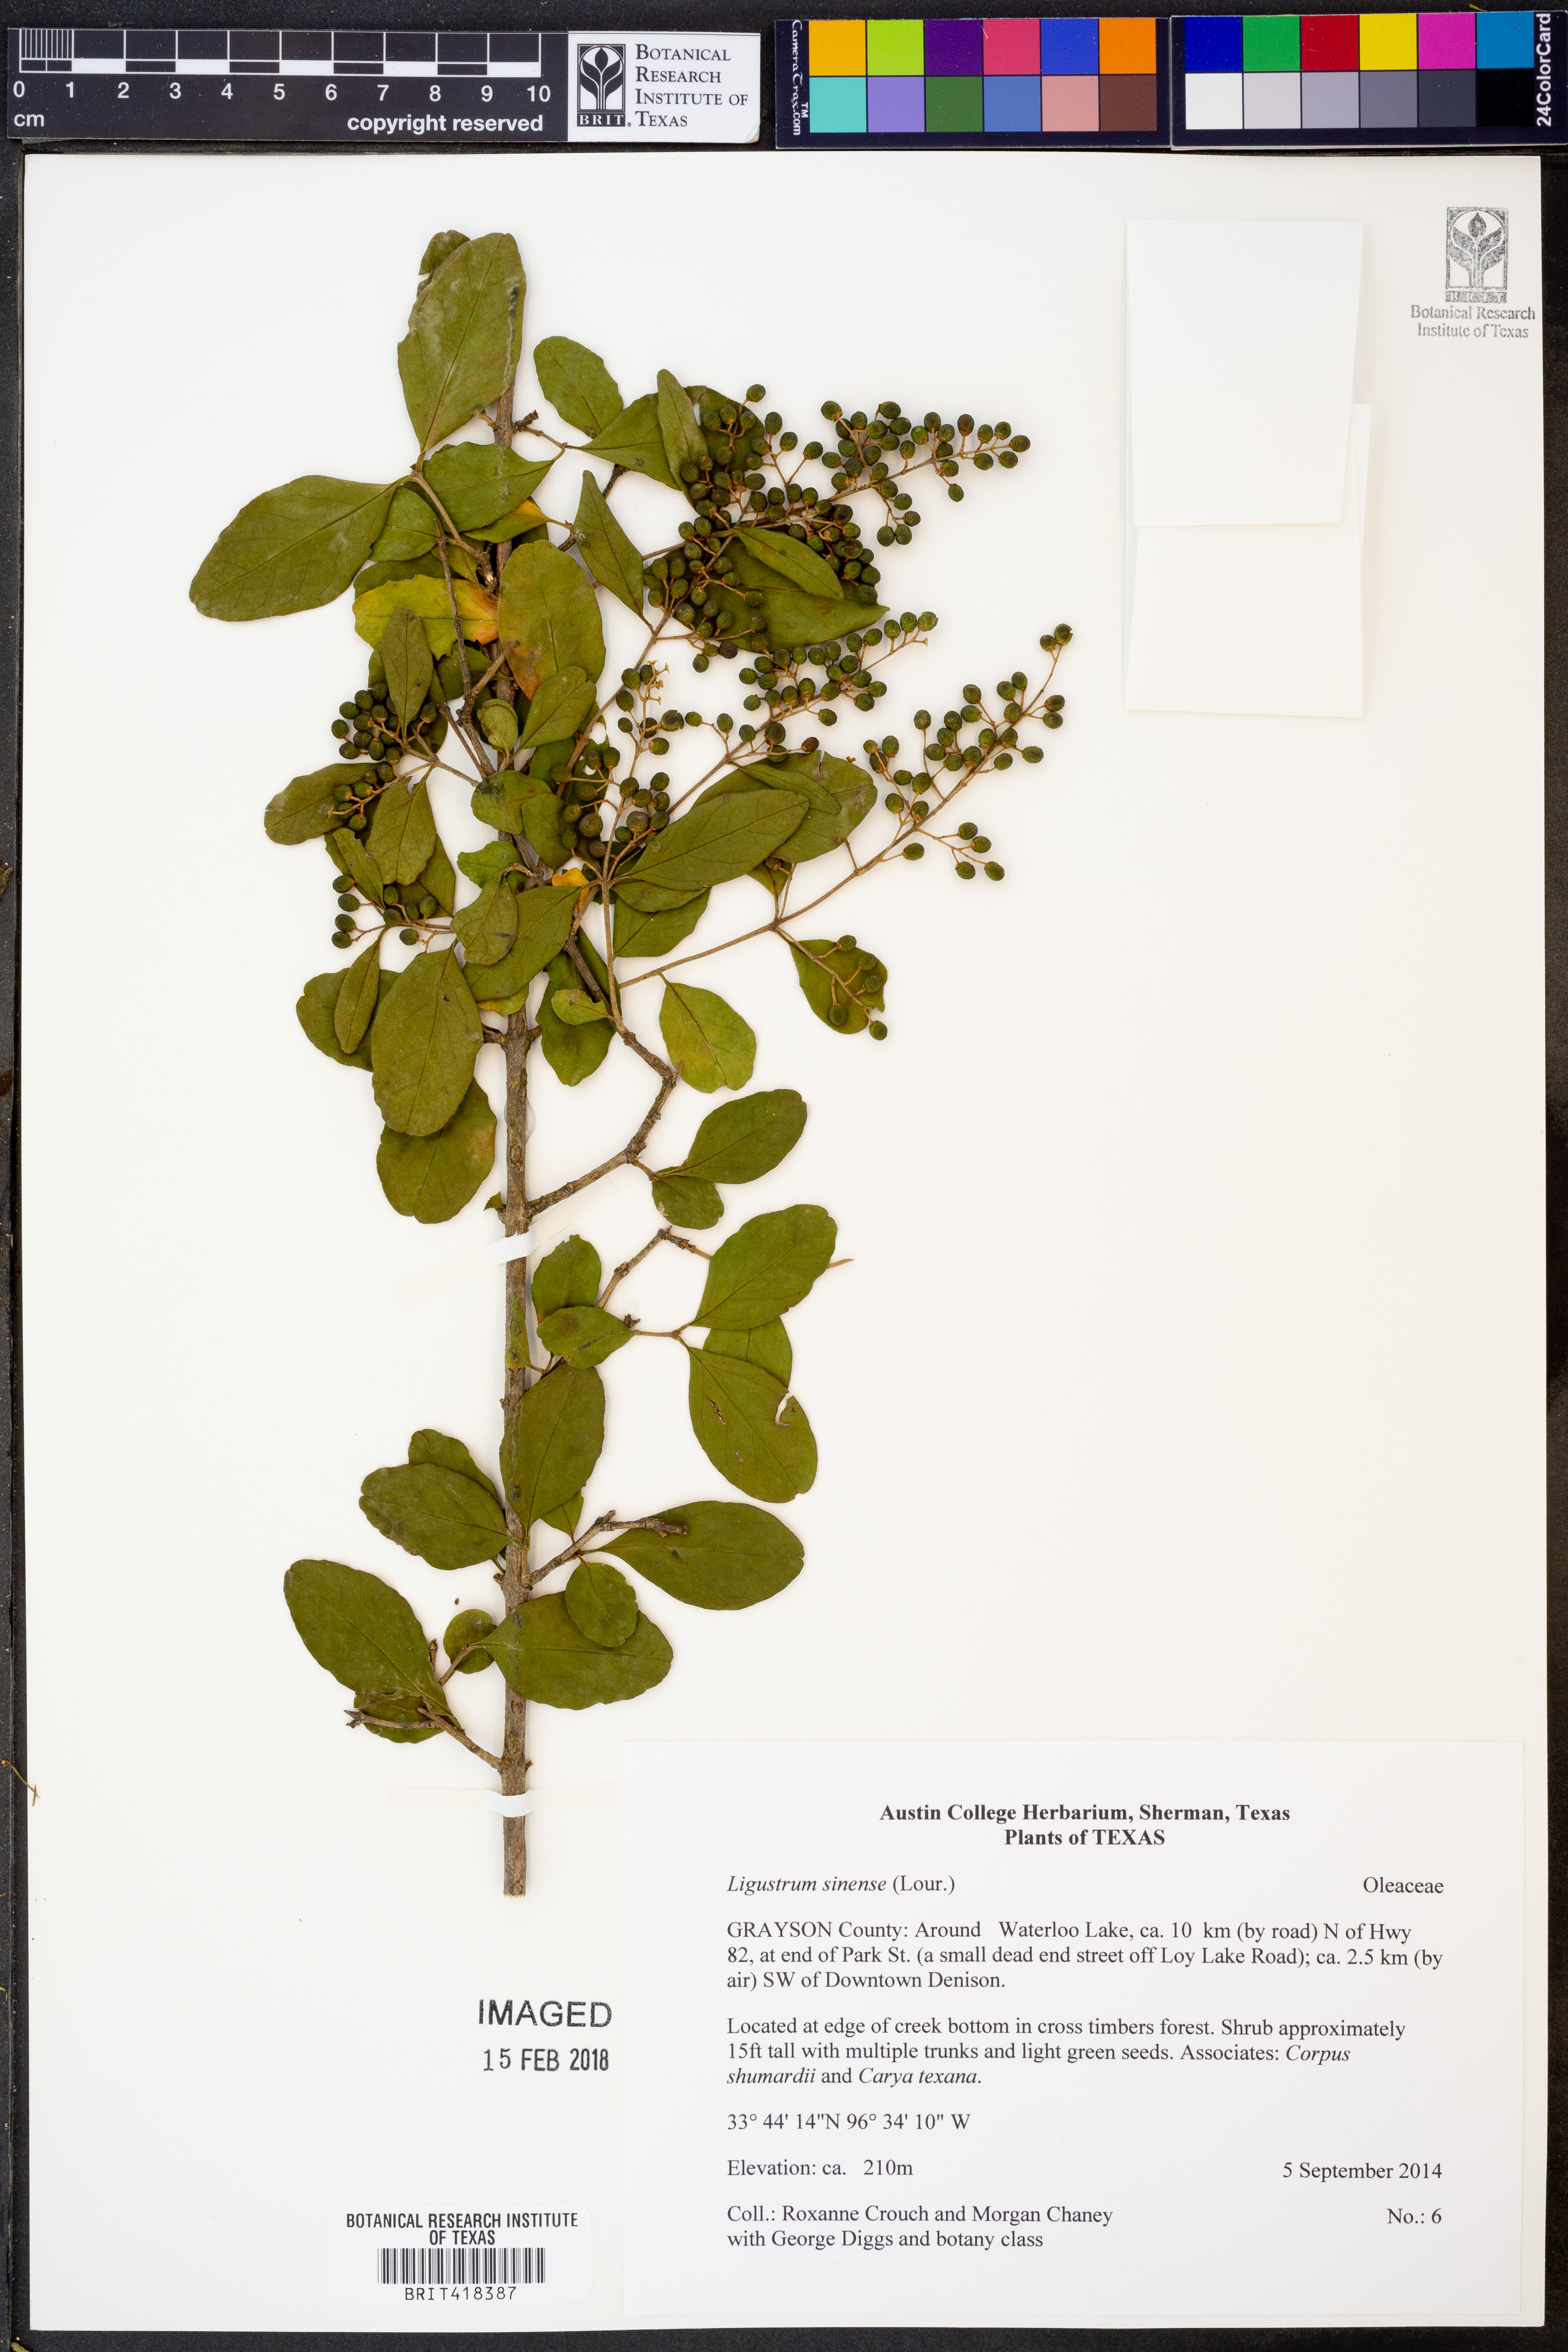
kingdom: Plantae
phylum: Tracheophyta
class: Magnoliopsida
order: Lamiales
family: Oleaceae
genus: Ligustrum
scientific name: Ligustrum sinense
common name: Chinese privet
